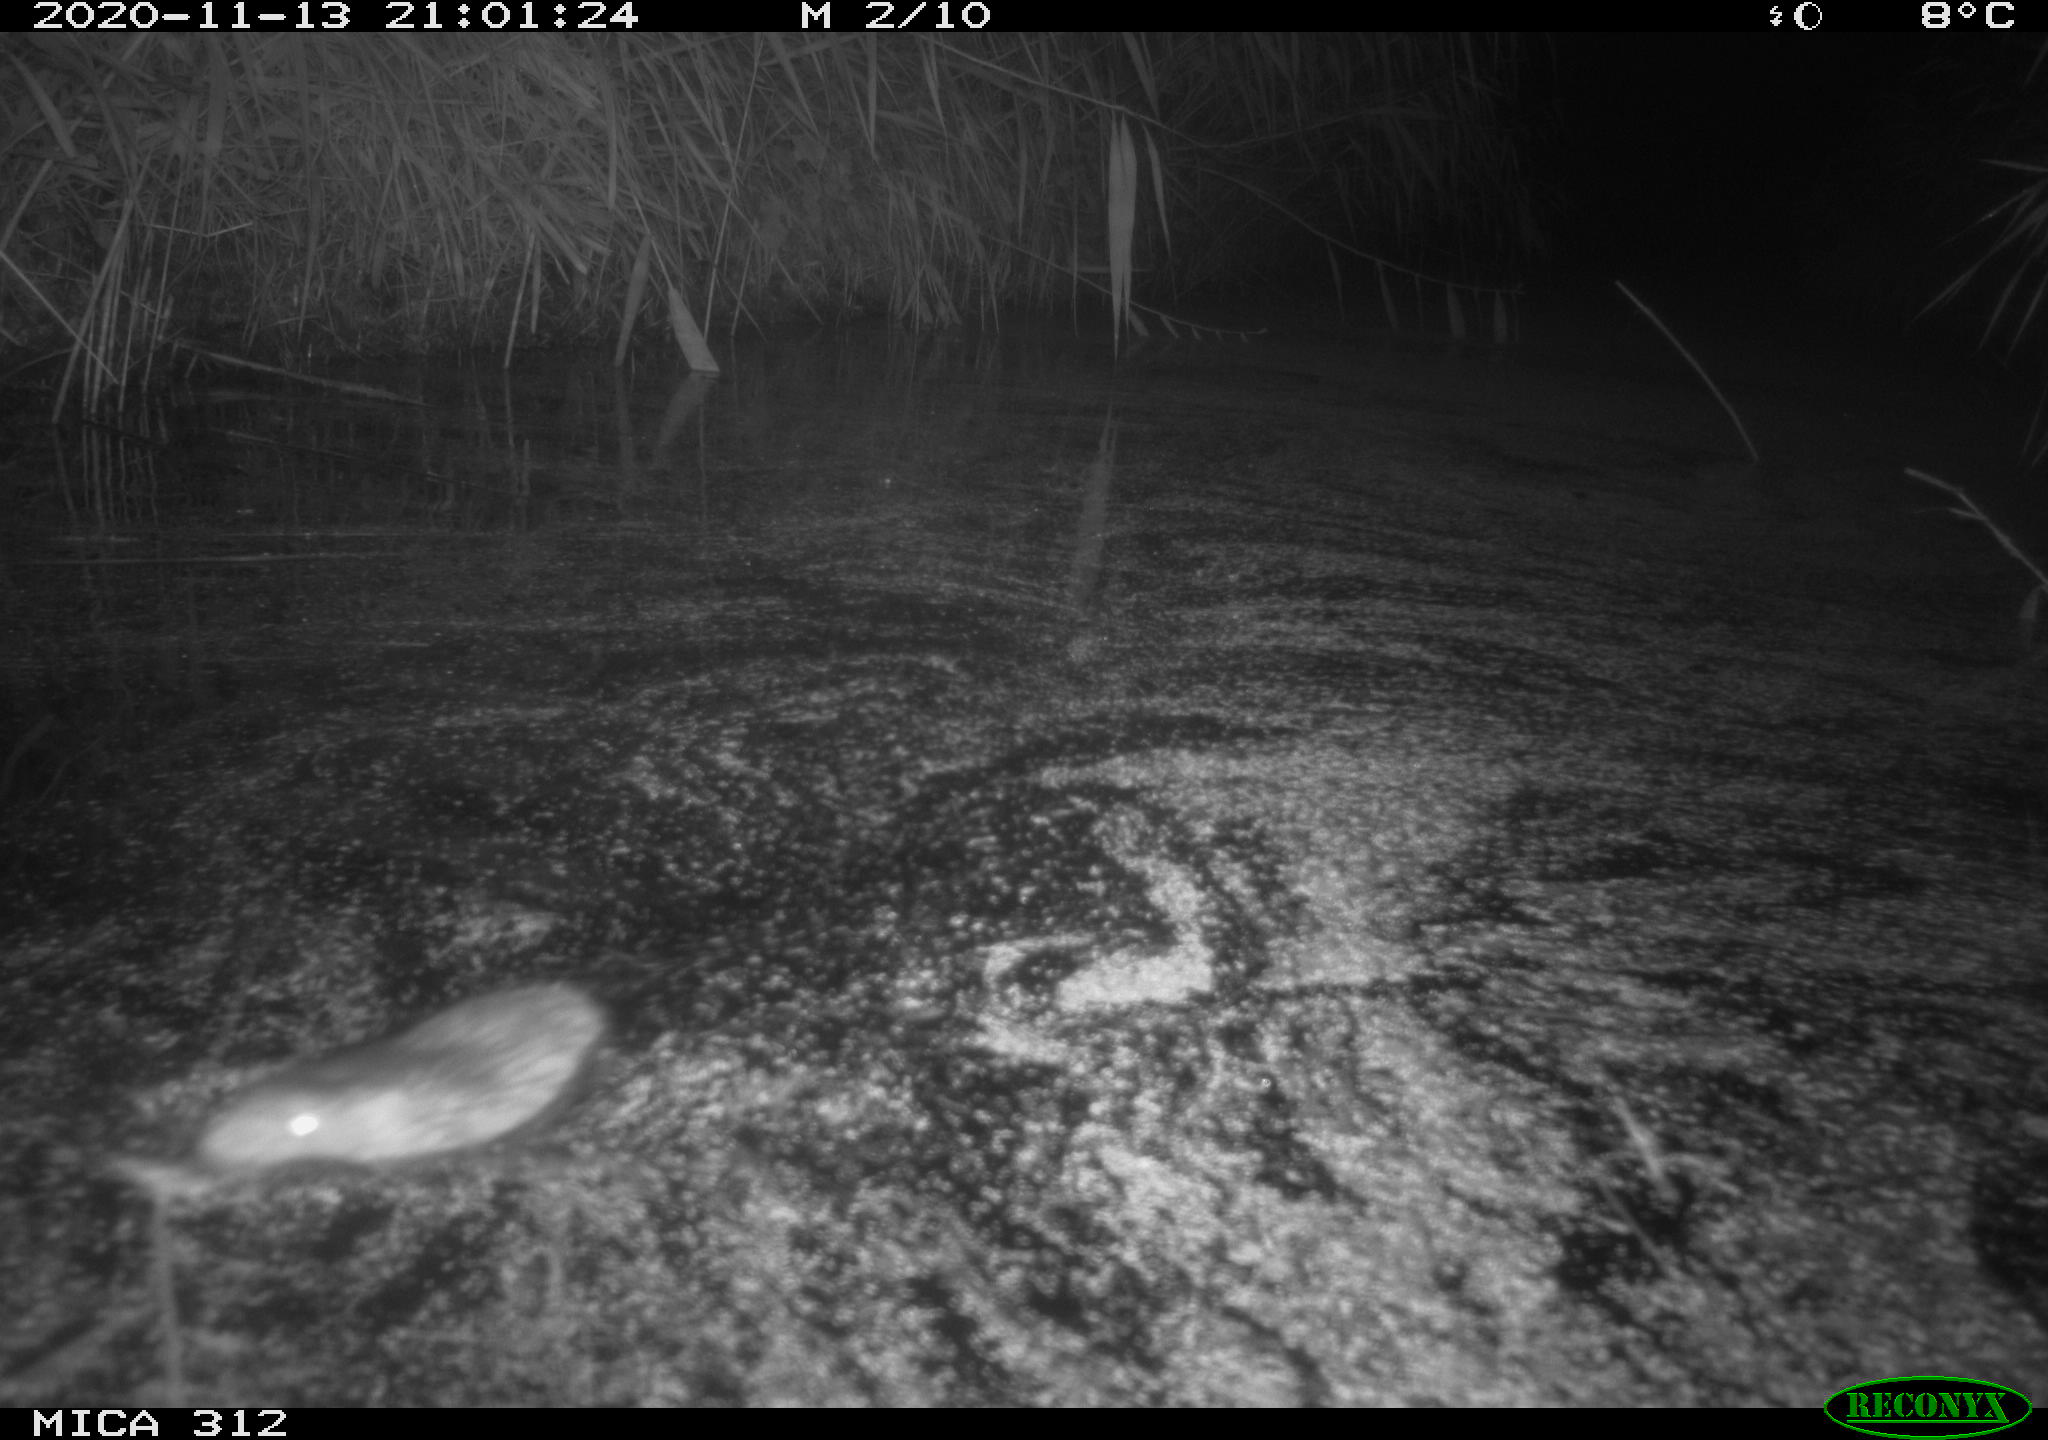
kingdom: Animalia
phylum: Chordata
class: Mammalia
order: Rodentia
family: Muridae
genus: Rattus
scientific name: Rattus norvegicus
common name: Brown rat
